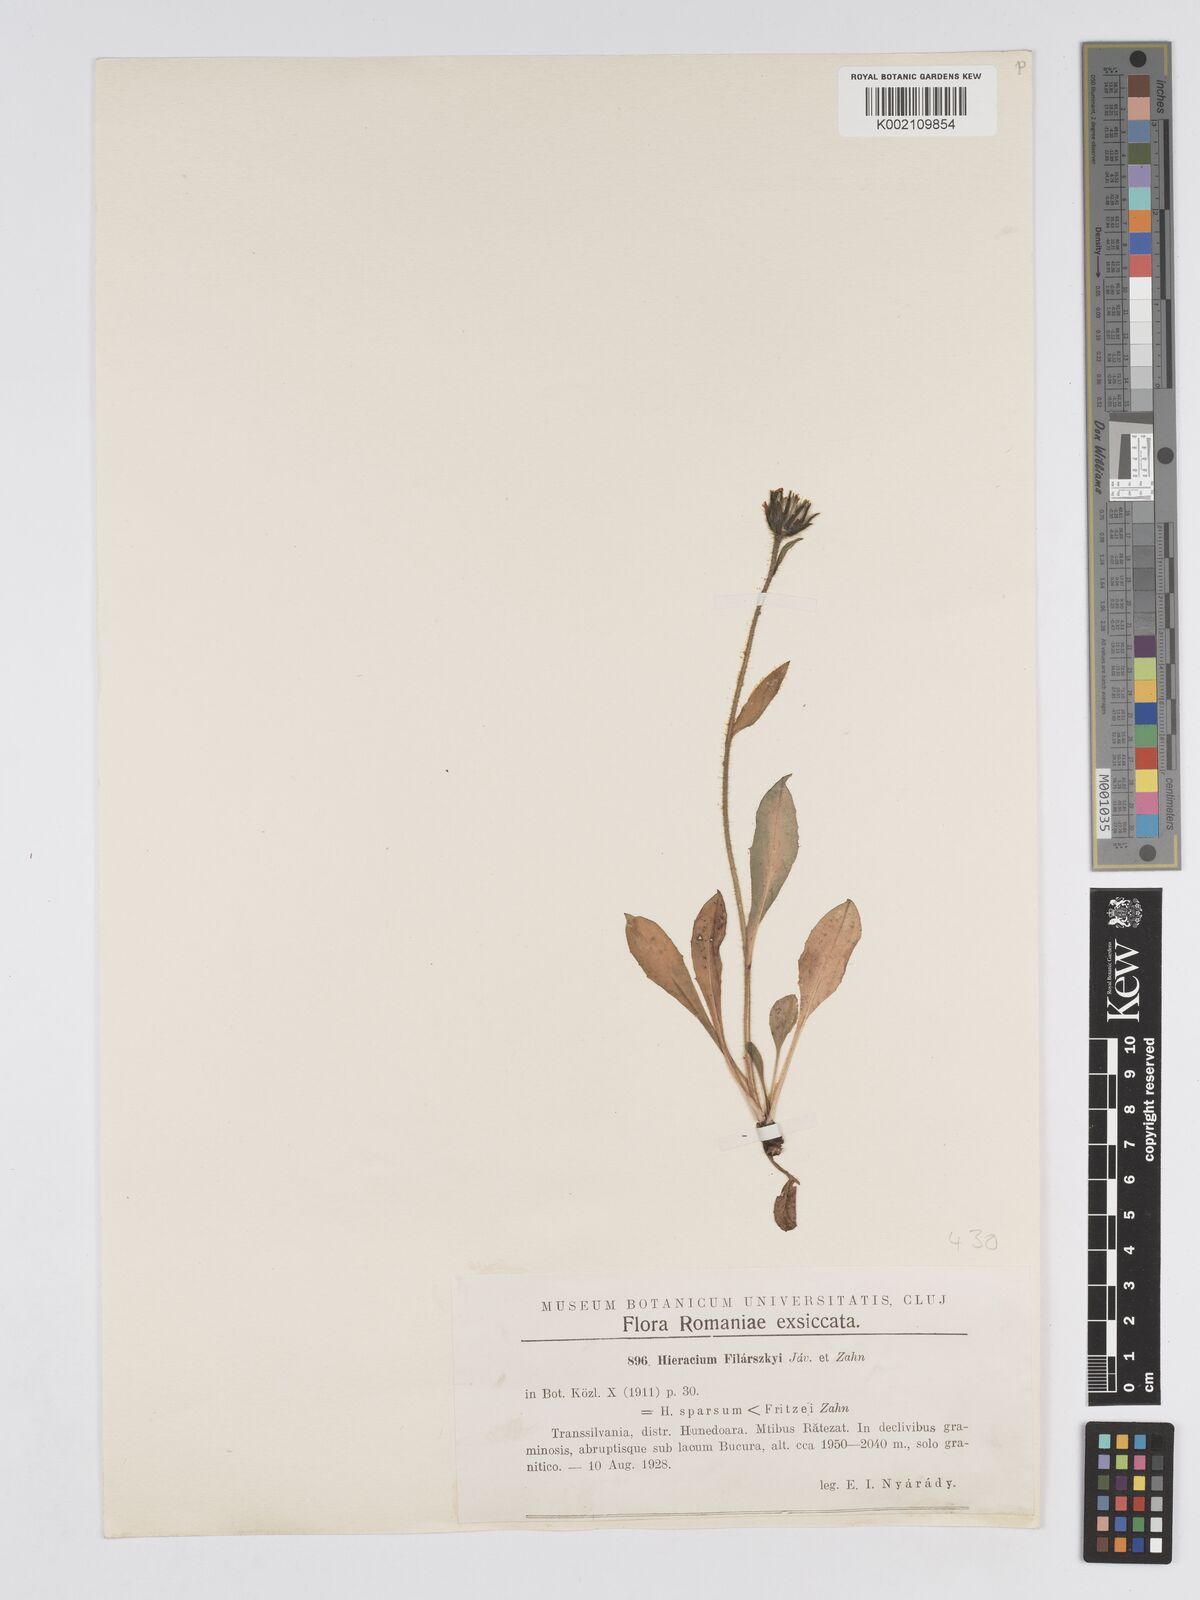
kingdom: Plantae
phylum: Tracheophyta
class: Magnoliopsida
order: Asterales
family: Asteraceae
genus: Hieracium
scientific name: Hieracium filarszkyi
